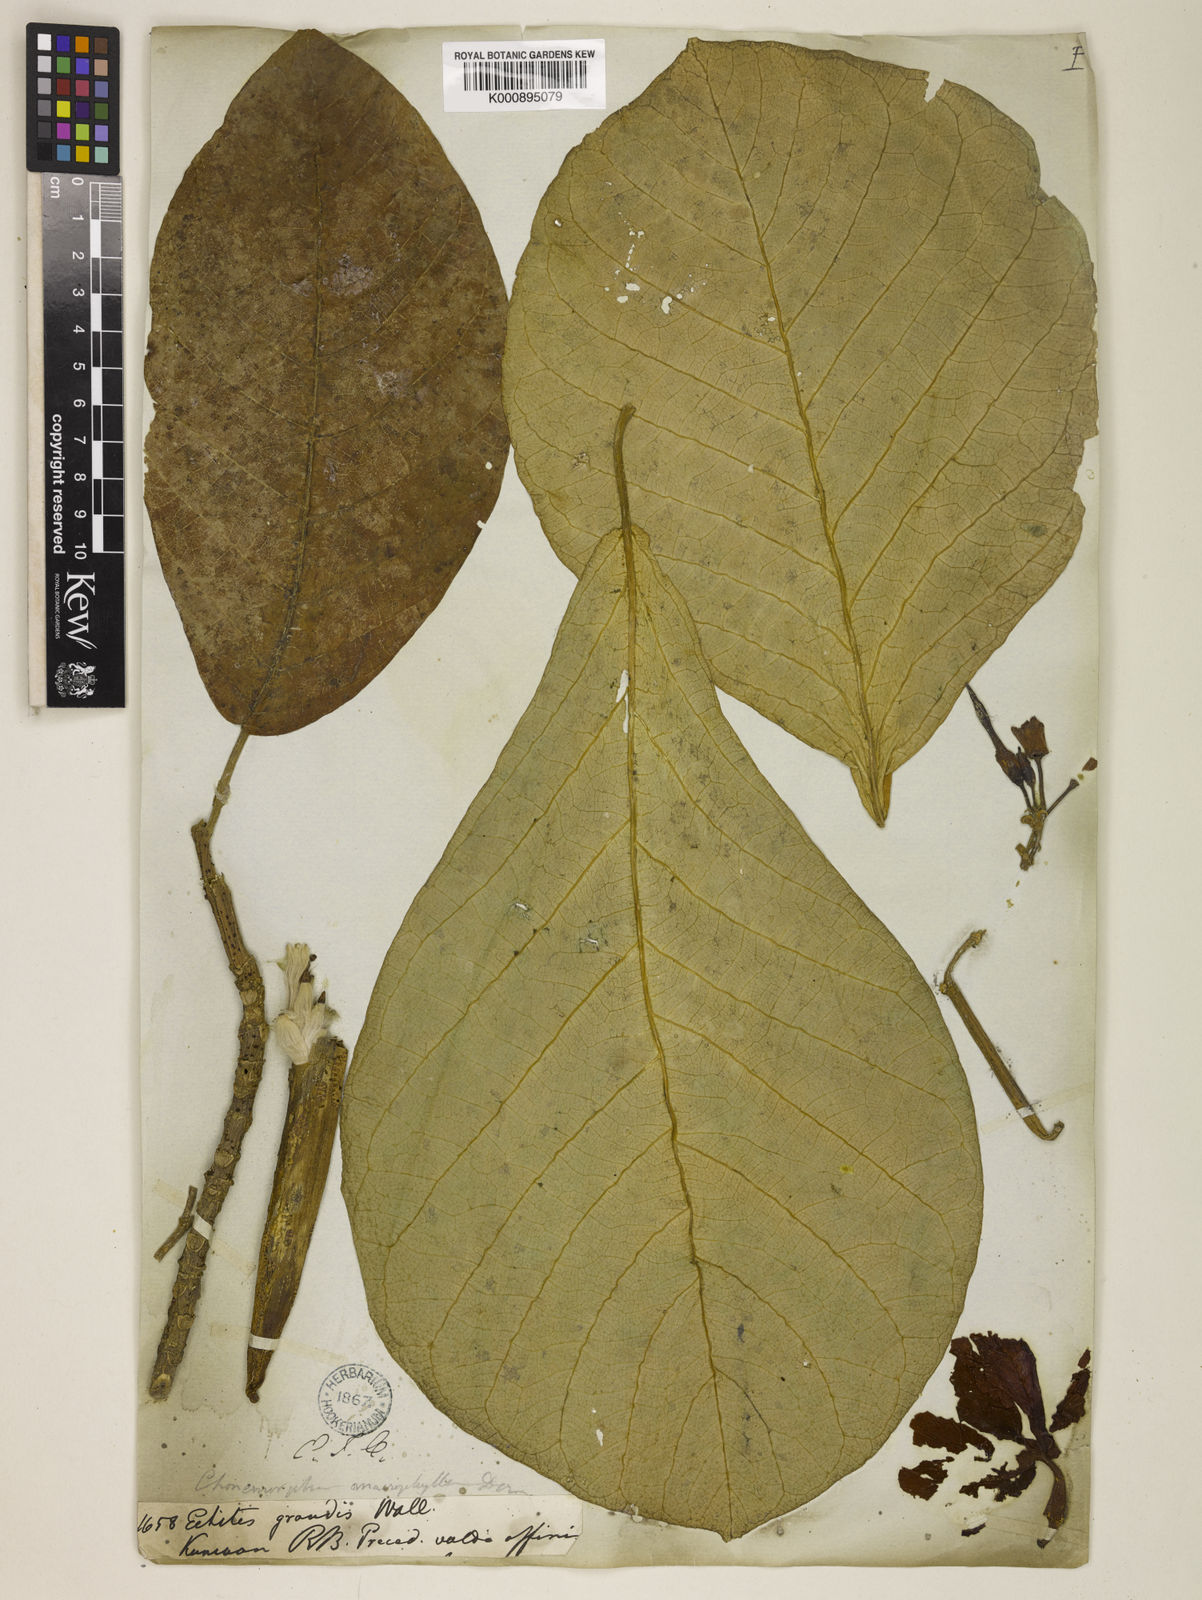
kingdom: Plantae
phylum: Tracheophyta
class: Magnoliopsida
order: Gentianales
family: Apocynaceae
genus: Chonemorpha
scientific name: Chonemorpha fragrans
